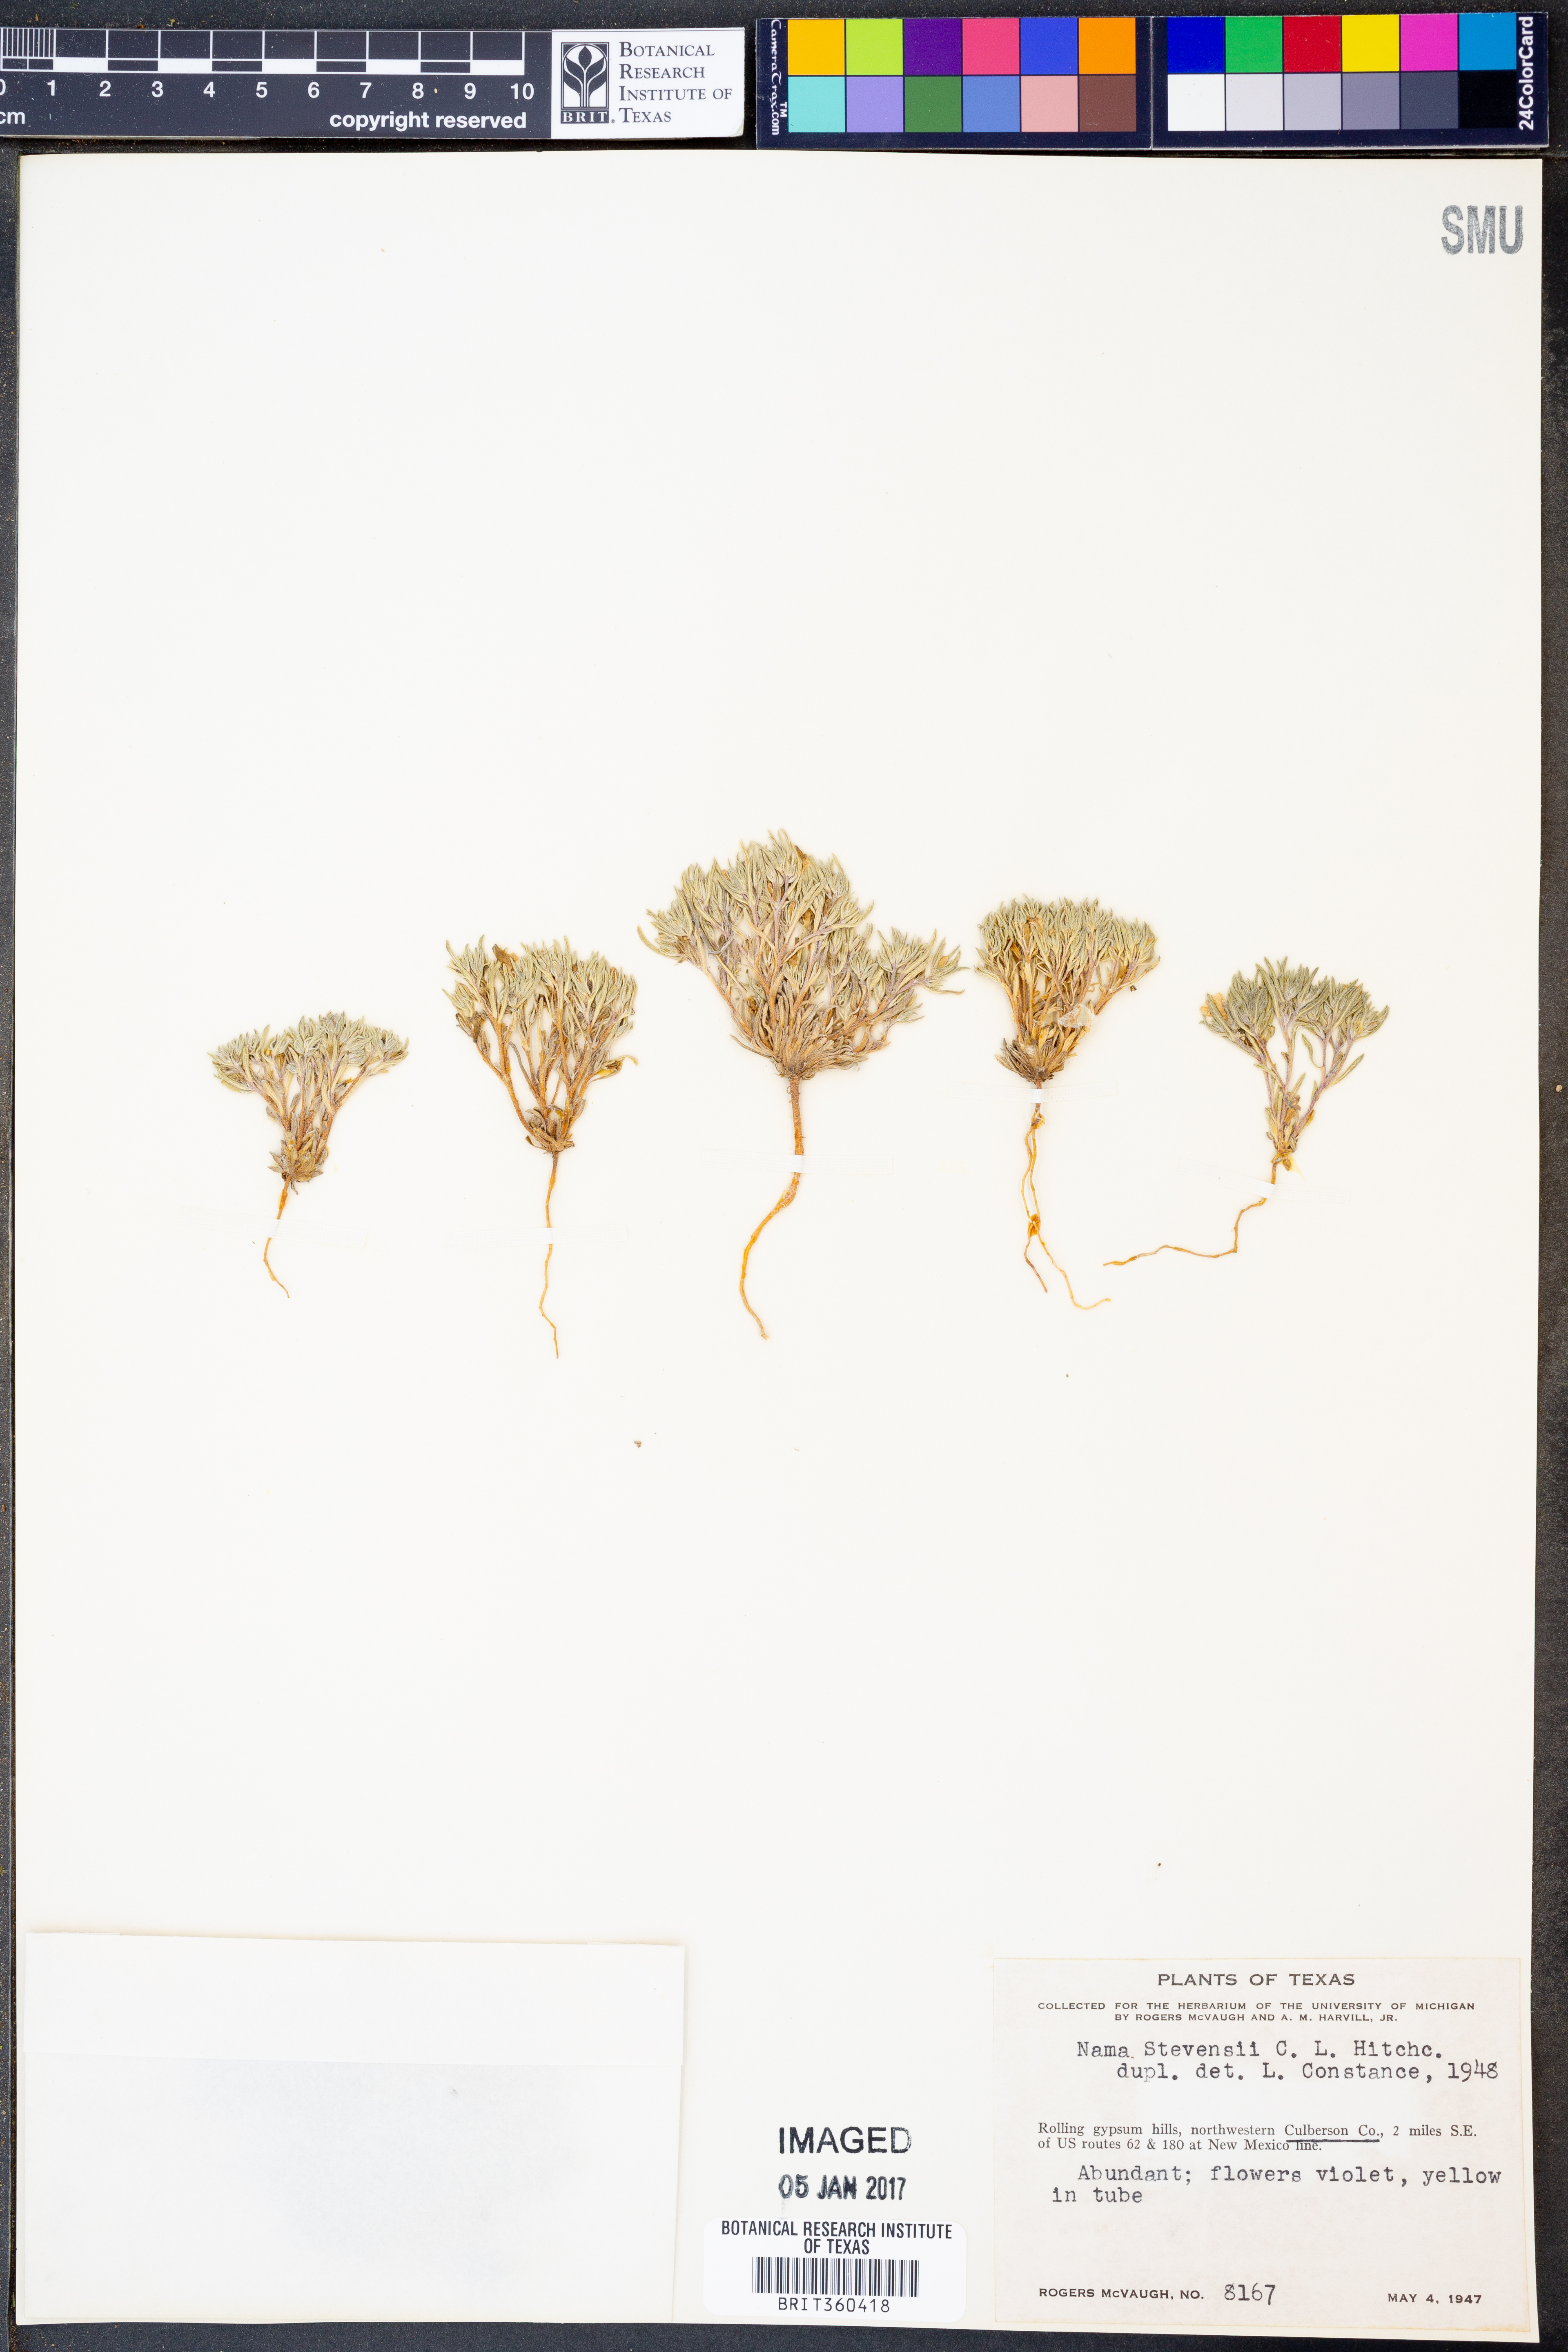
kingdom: Plantae
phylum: Tracheophyta
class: Magnoliopsida
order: Boraginales
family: Namaceae
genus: Nama
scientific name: Nama stevensii
